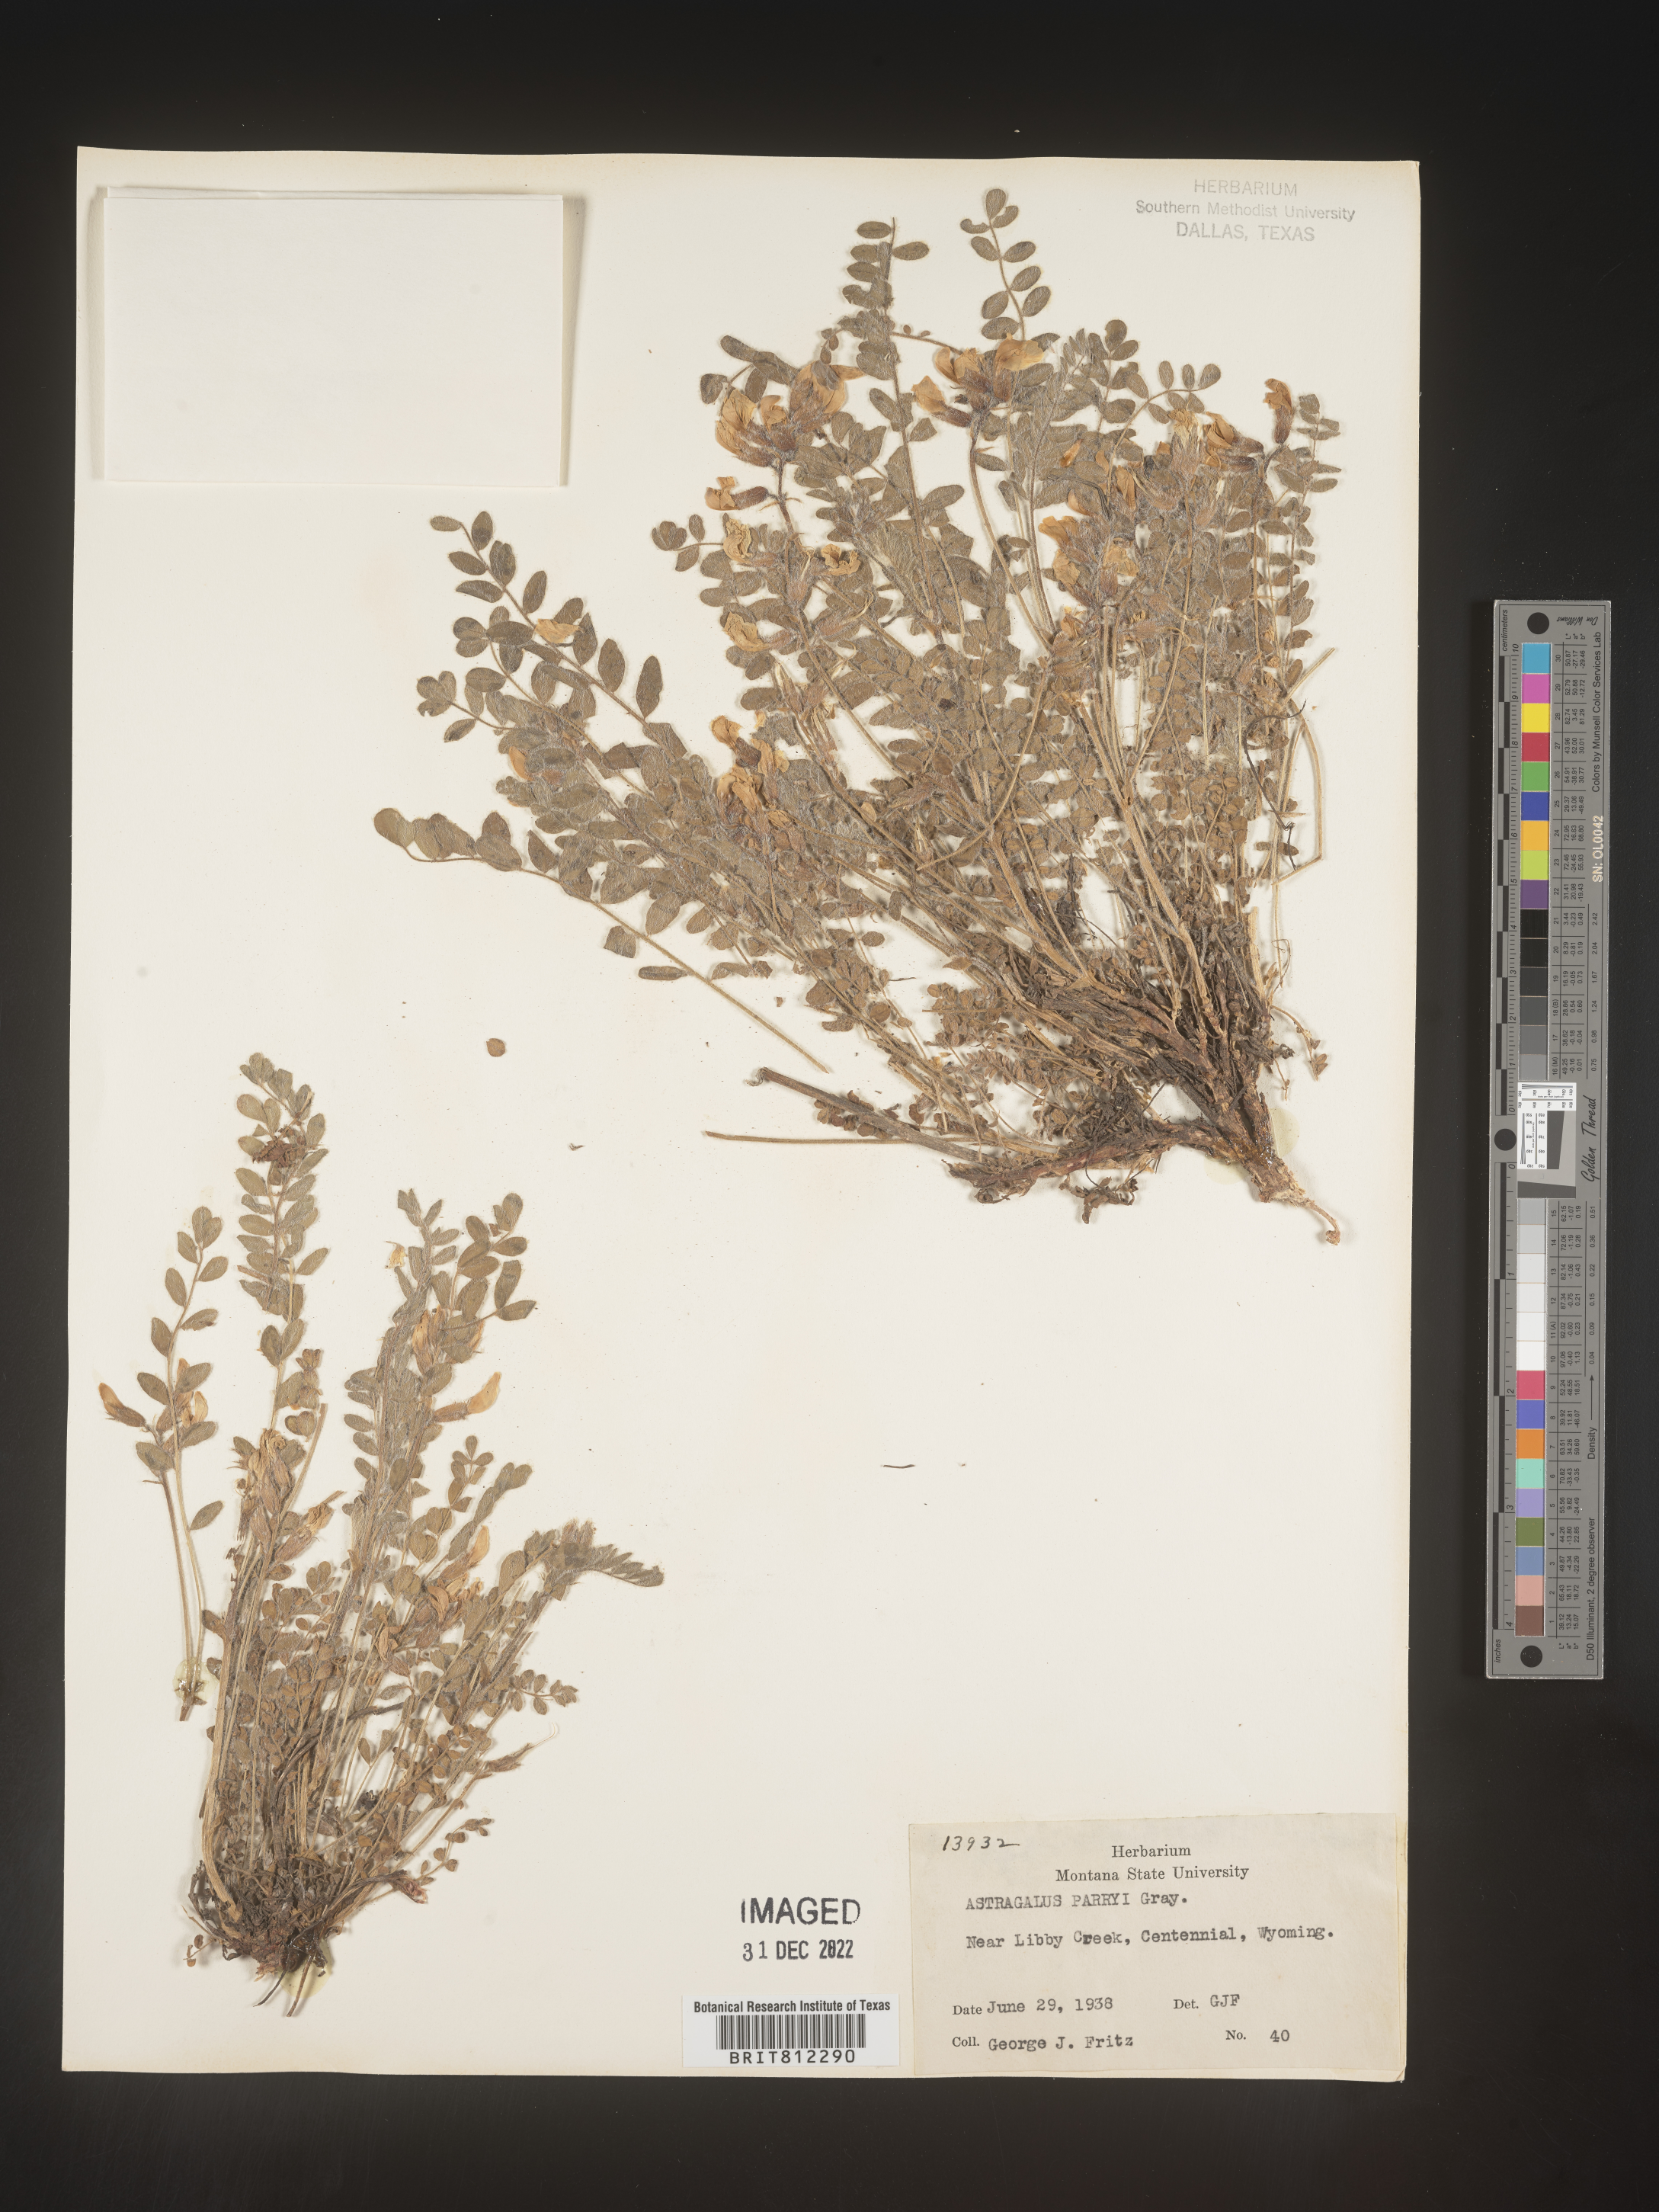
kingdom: Plantae
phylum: Tracheophyta
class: Magnoliopsida
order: Fabales
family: Fabaceae
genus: Astragalus
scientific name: Astragalus
